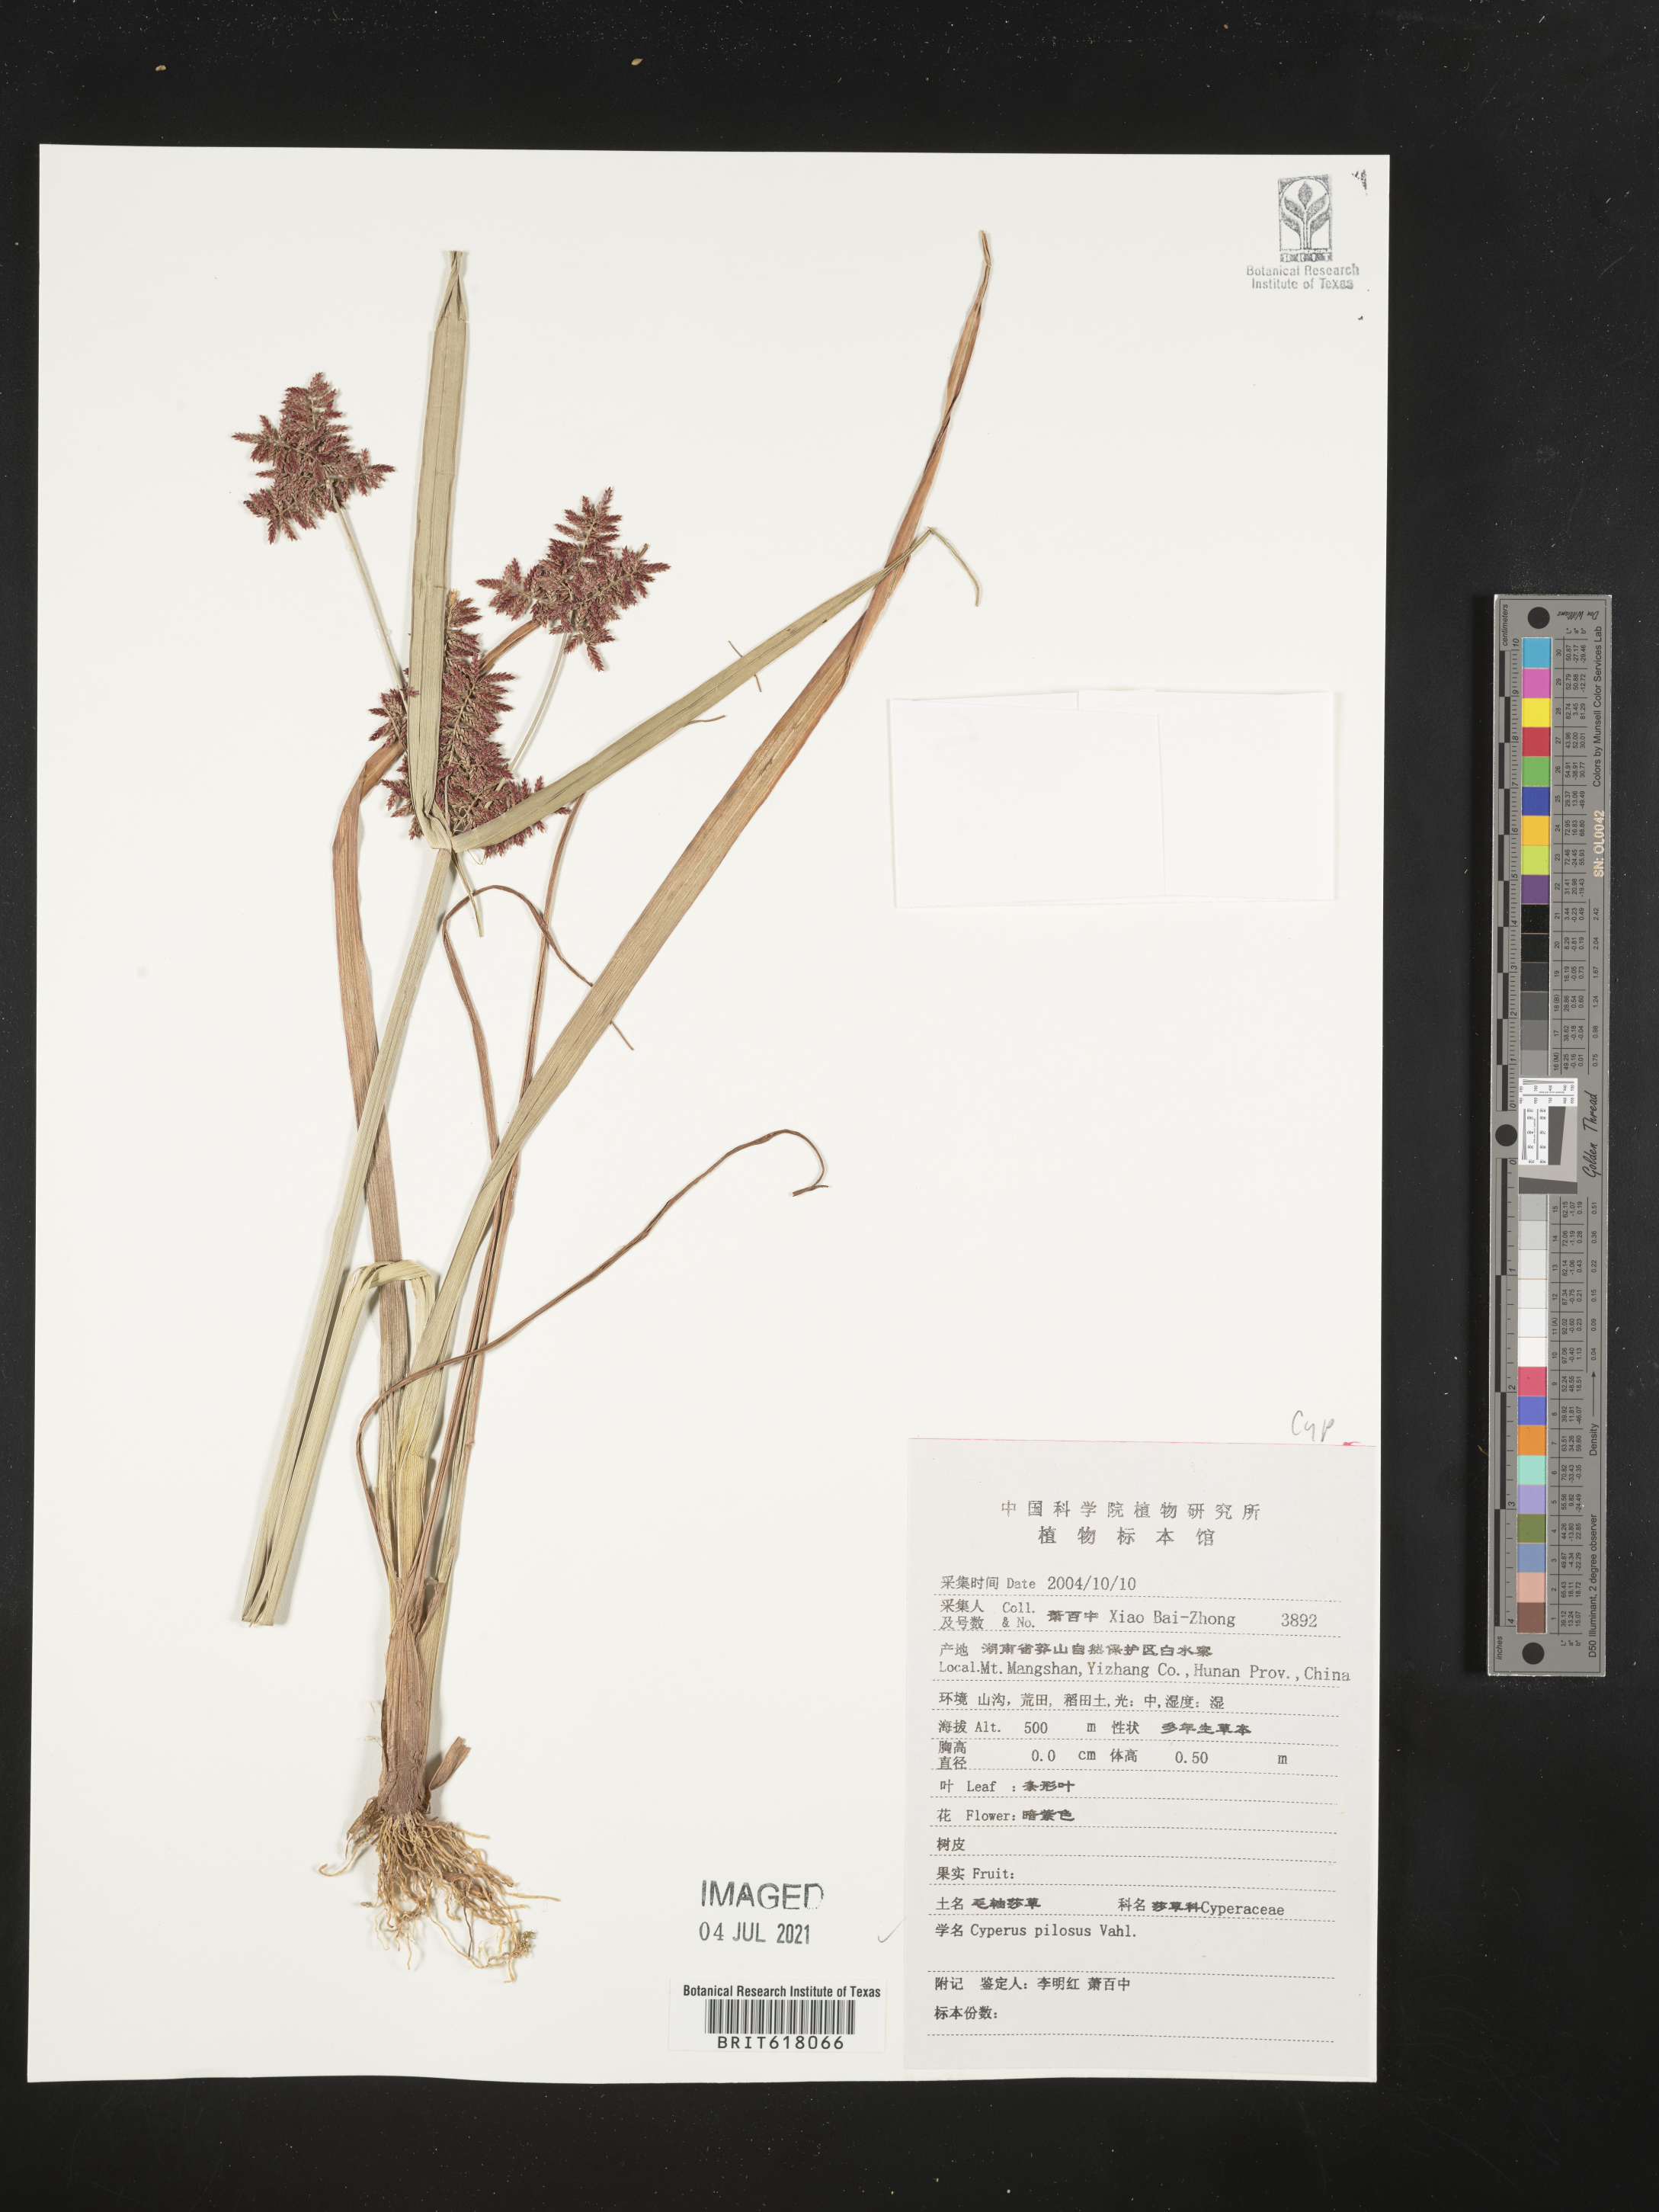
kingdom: Plantae
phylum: Tracheophyta
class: Liliopsida
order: Poales
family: Cyperaceae
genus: Cyperus
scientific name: Cyperus pilosus
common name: Fuzzy flatsedge
